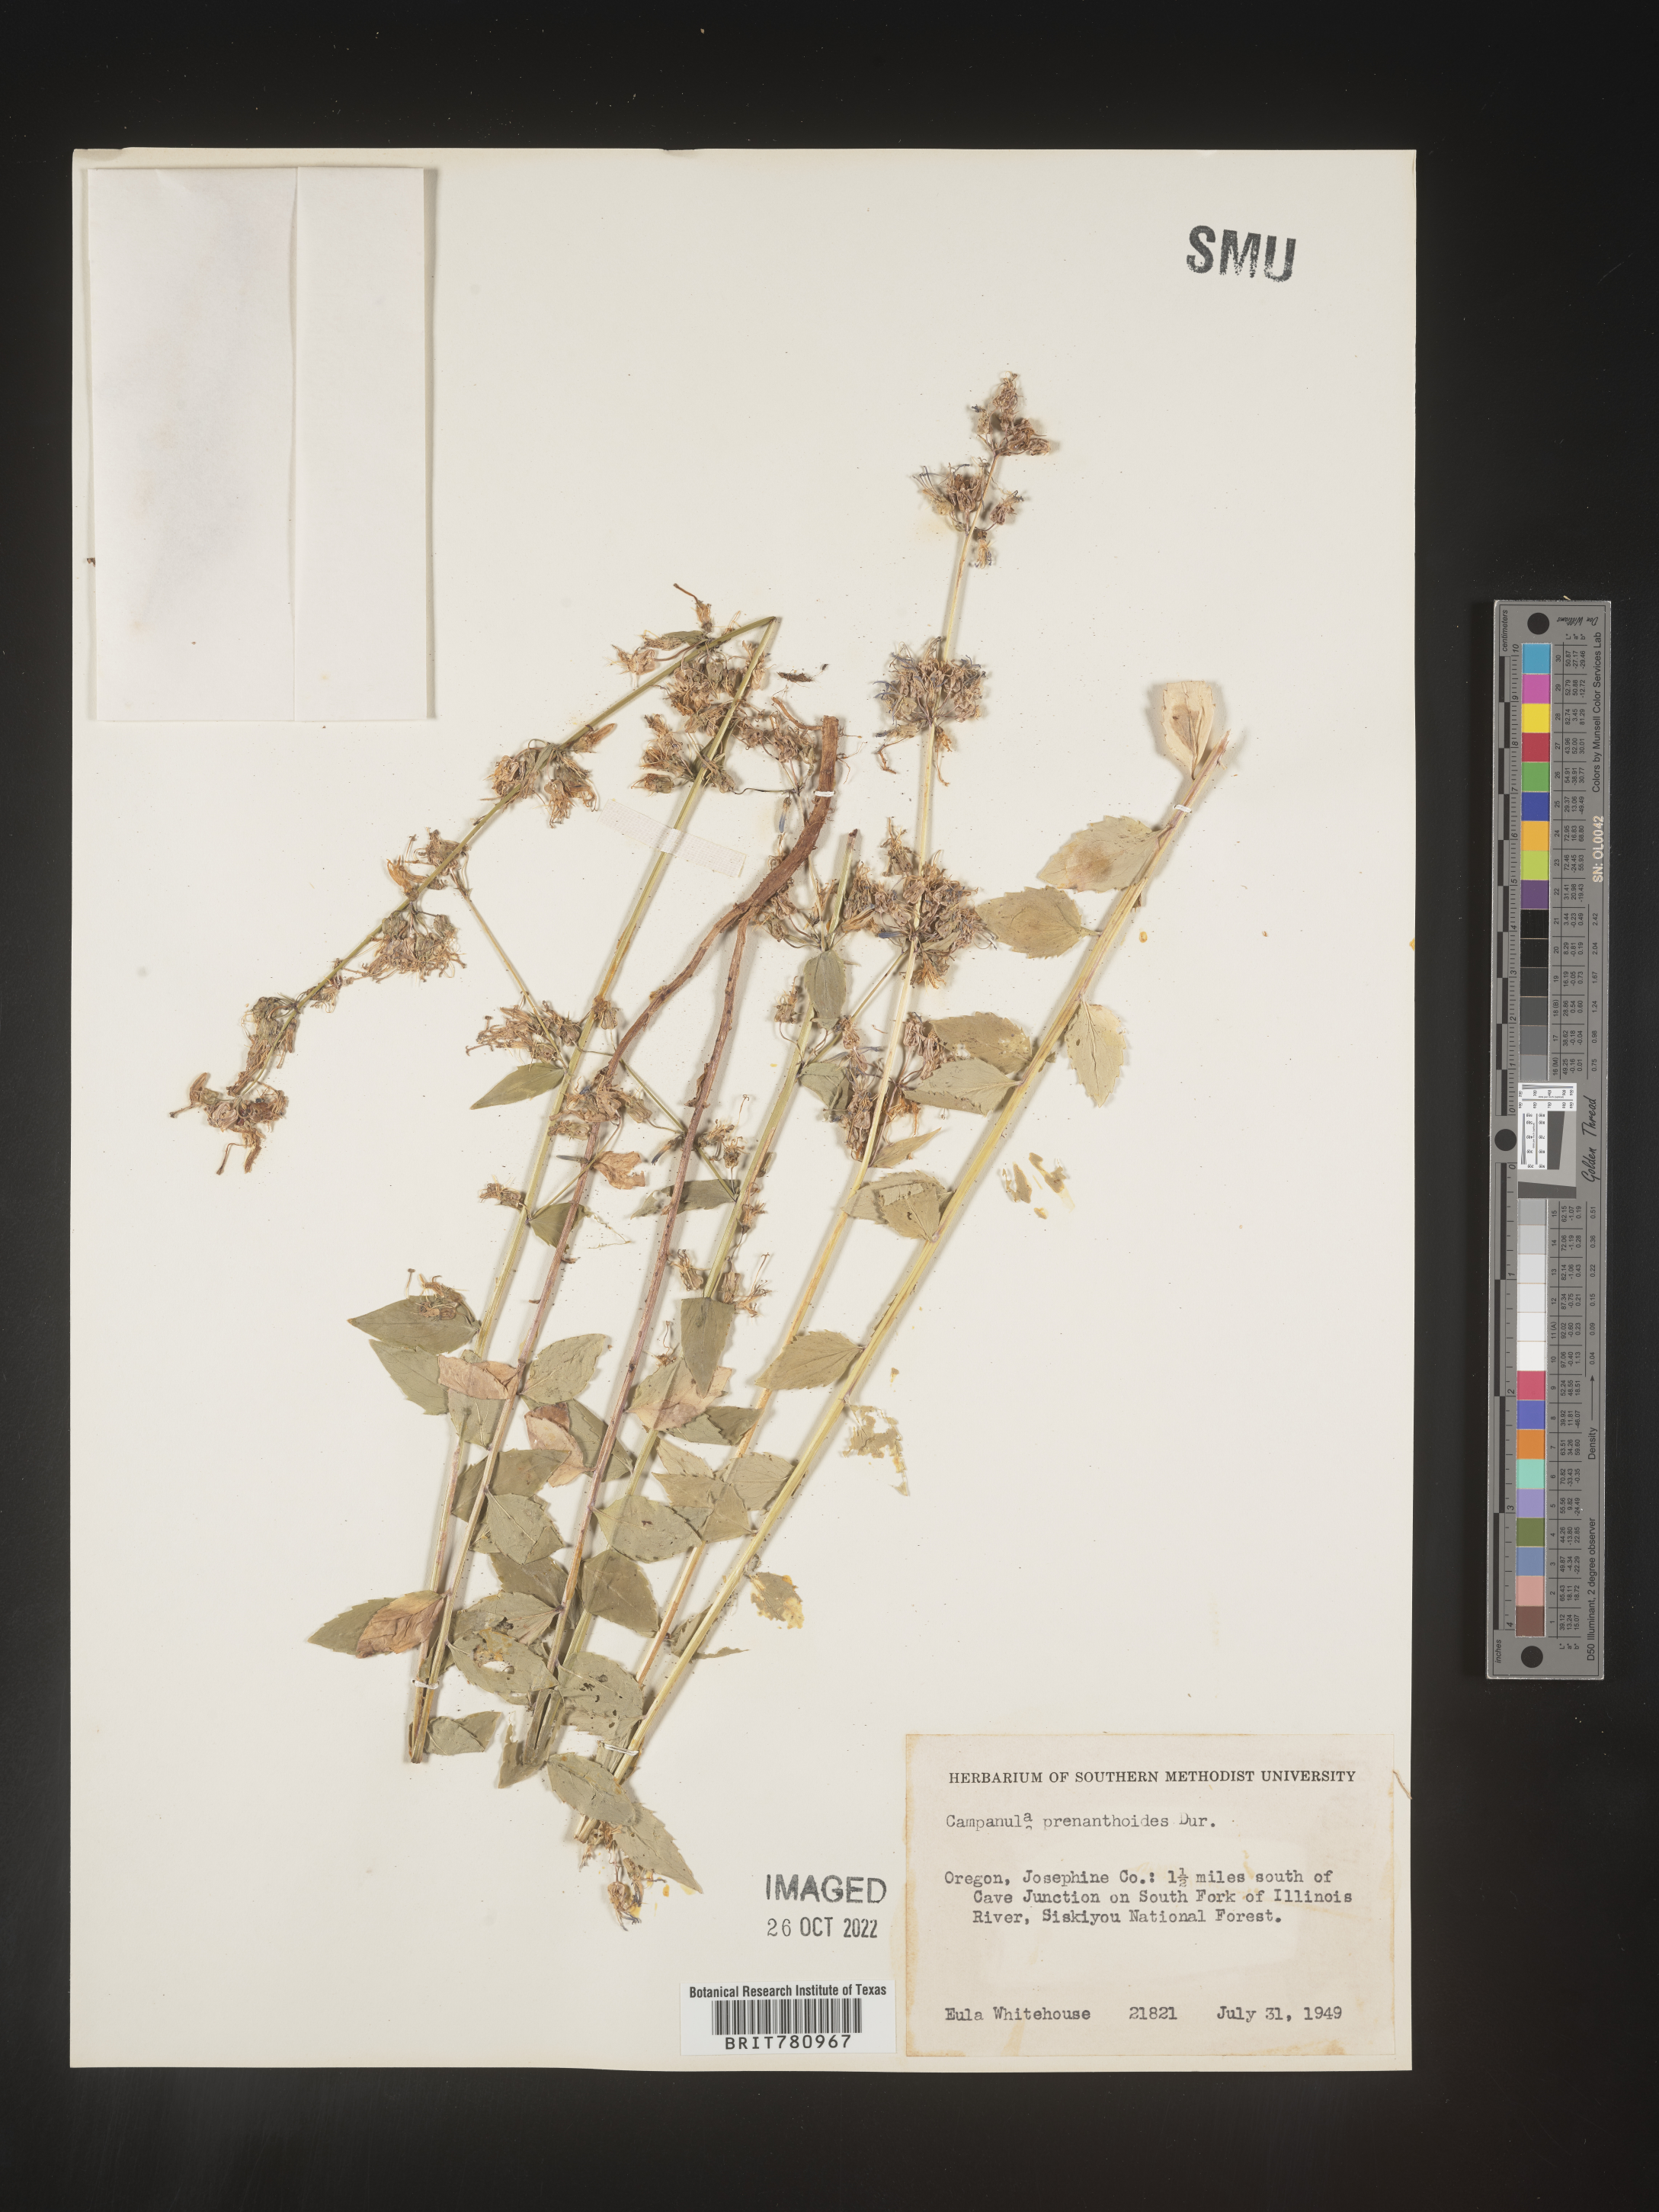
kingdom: Plantae
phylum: Tracheophyta
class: Magnoliopsida
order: Asterales
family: Campanulaceae
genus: Smithiastrum
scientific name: Smithiastrum prenanthoides
